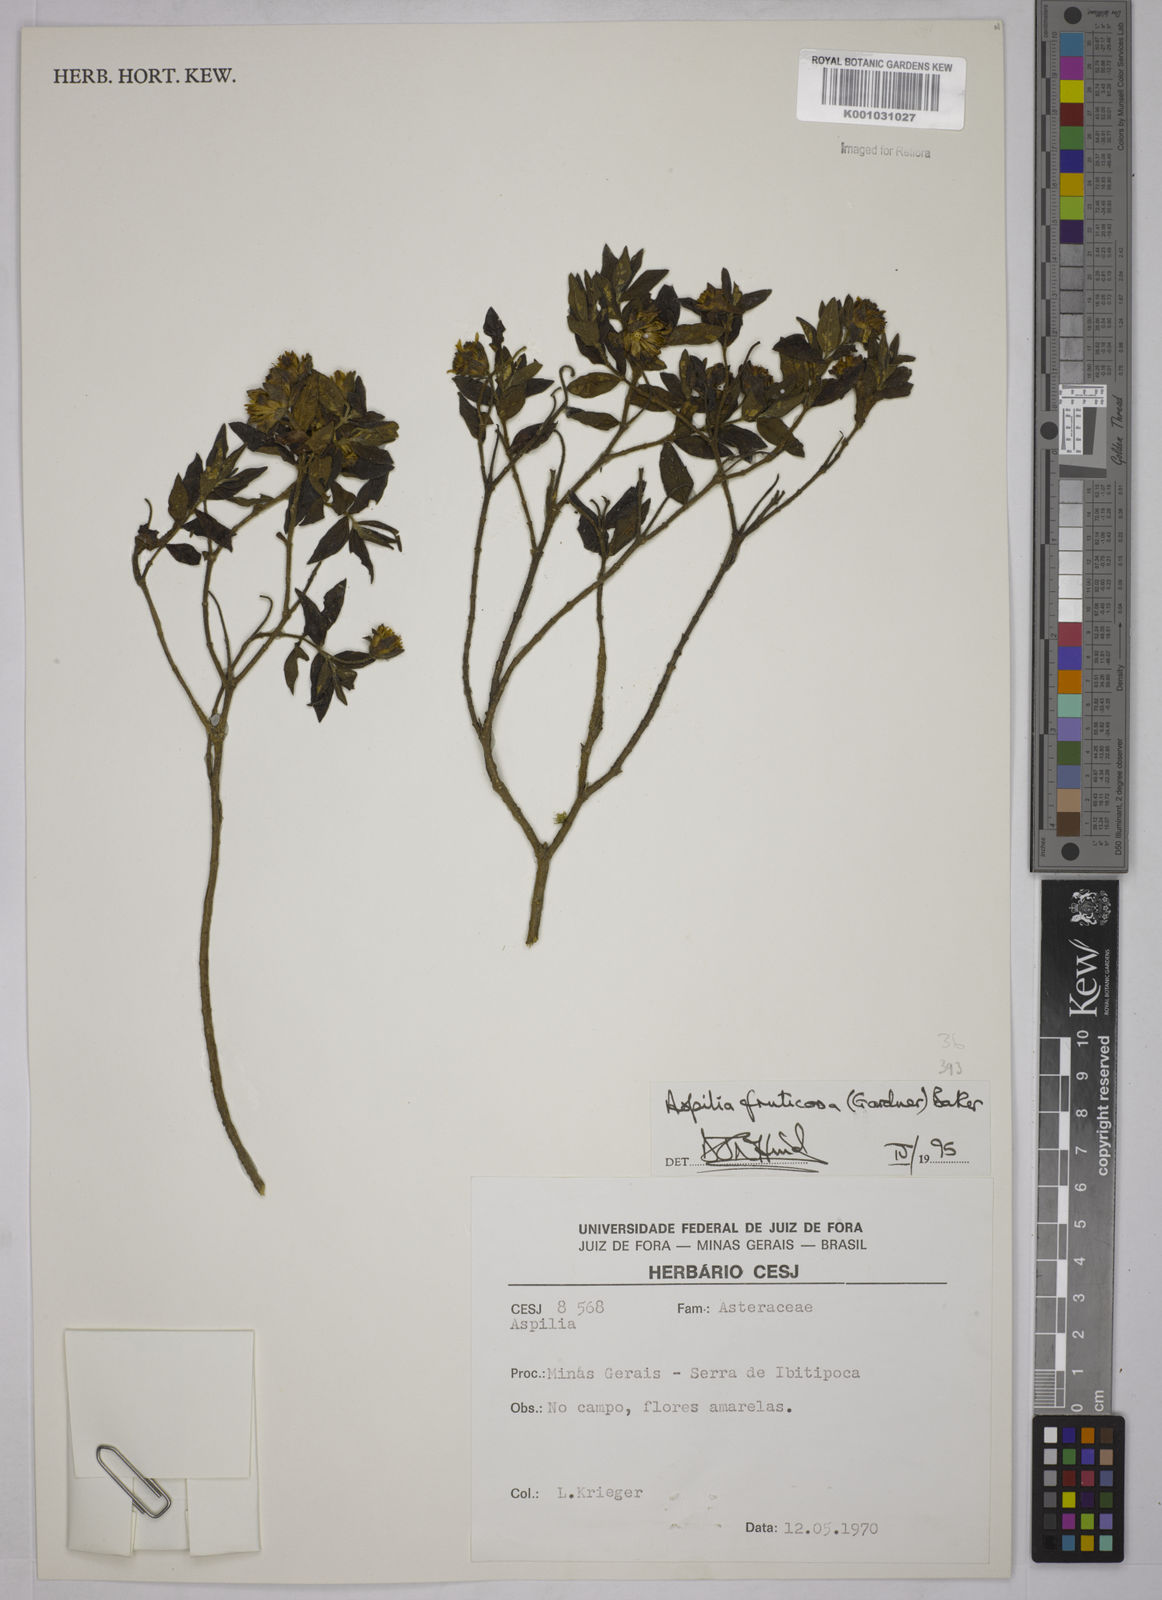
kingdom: Plantae
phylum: Tracheophyta
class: Magnoliopsida
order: Asterales
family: Asteraceae
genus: Wedelia
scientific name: Wedelia frustrata
